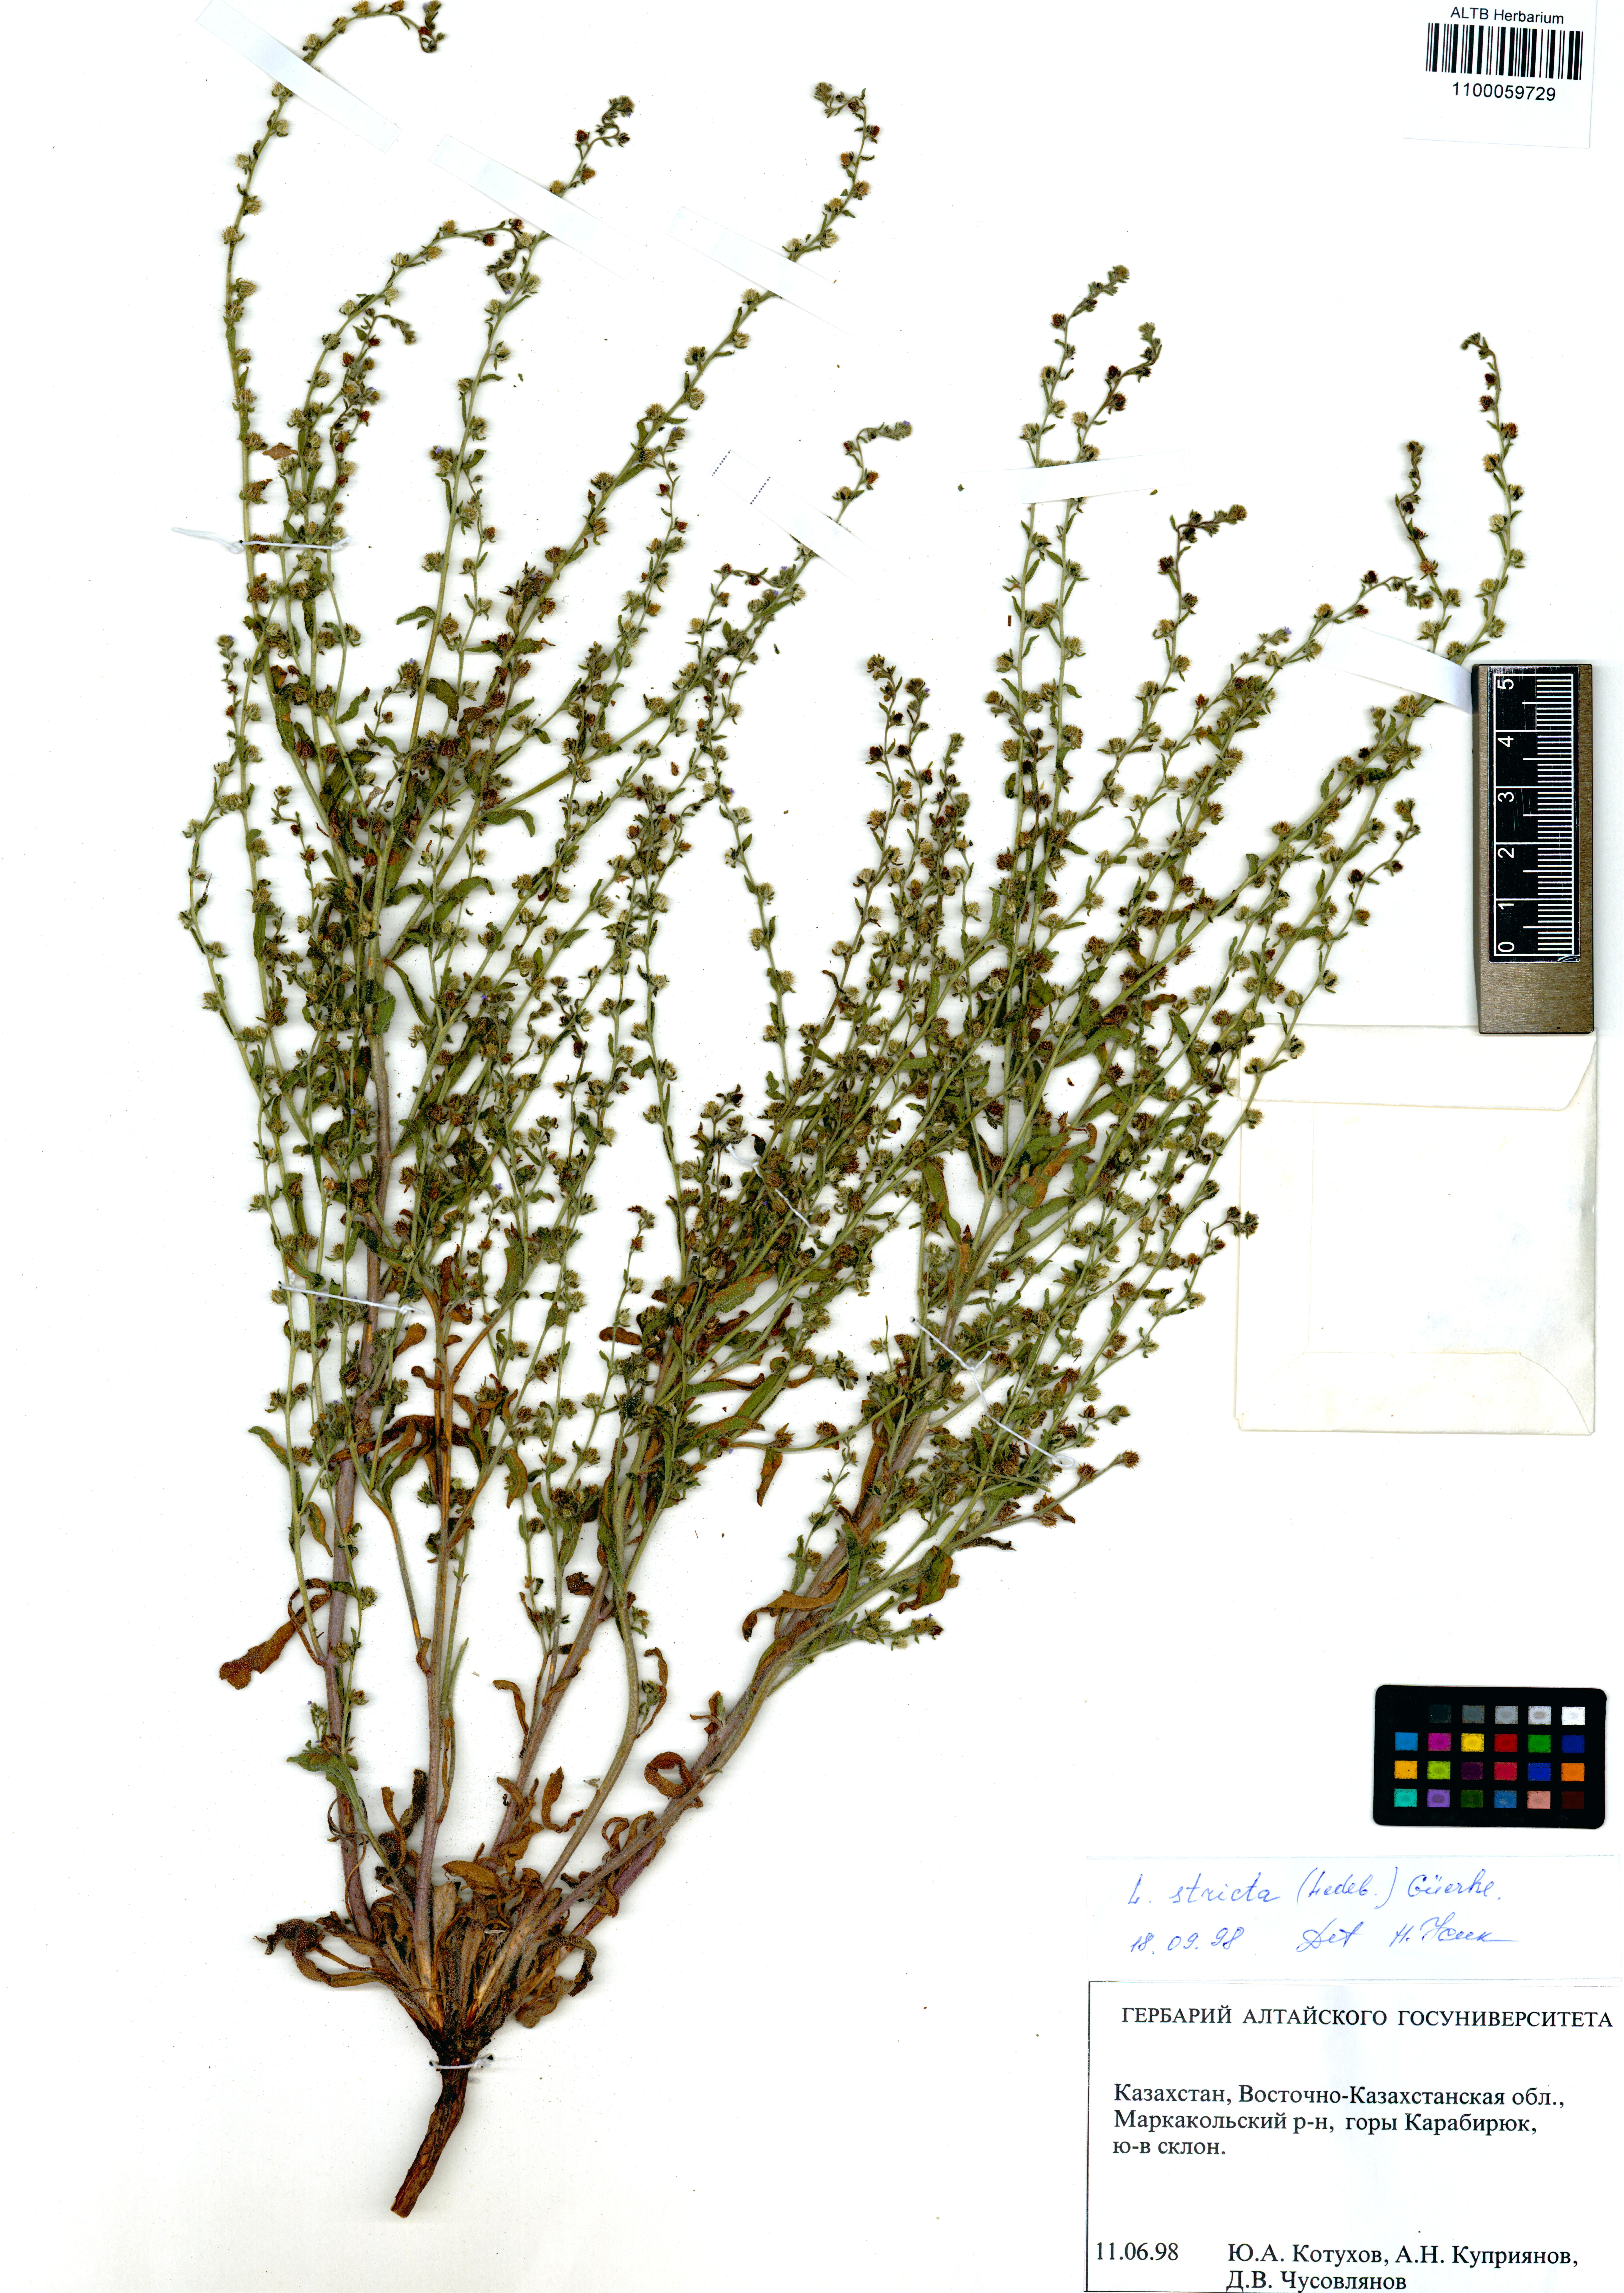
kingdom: Plantae
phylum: Tracheophyta
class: Magnoliopsida
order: Boraginales
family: Boraginaceae
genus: Lappula
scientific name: Lappula stricta
